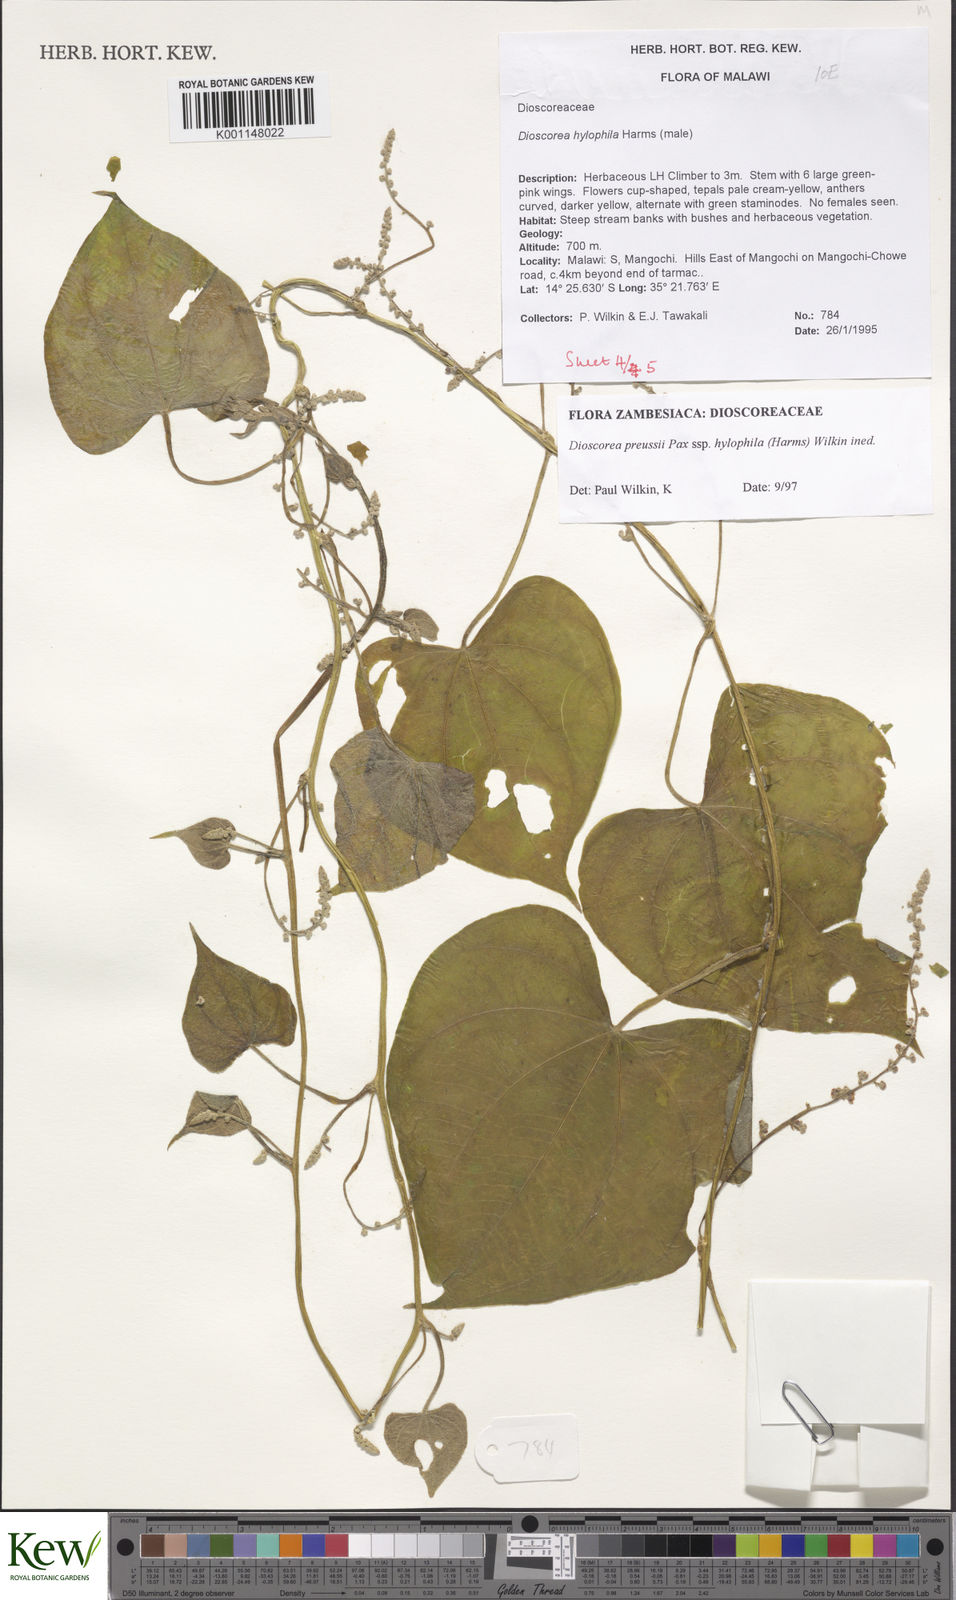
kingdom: Plantae
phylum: Tracheophyta
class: Liliopsida
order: Dioscoreales
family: Dioscoreaceae
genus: Dioscorea
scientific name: Dioscorea preussii
